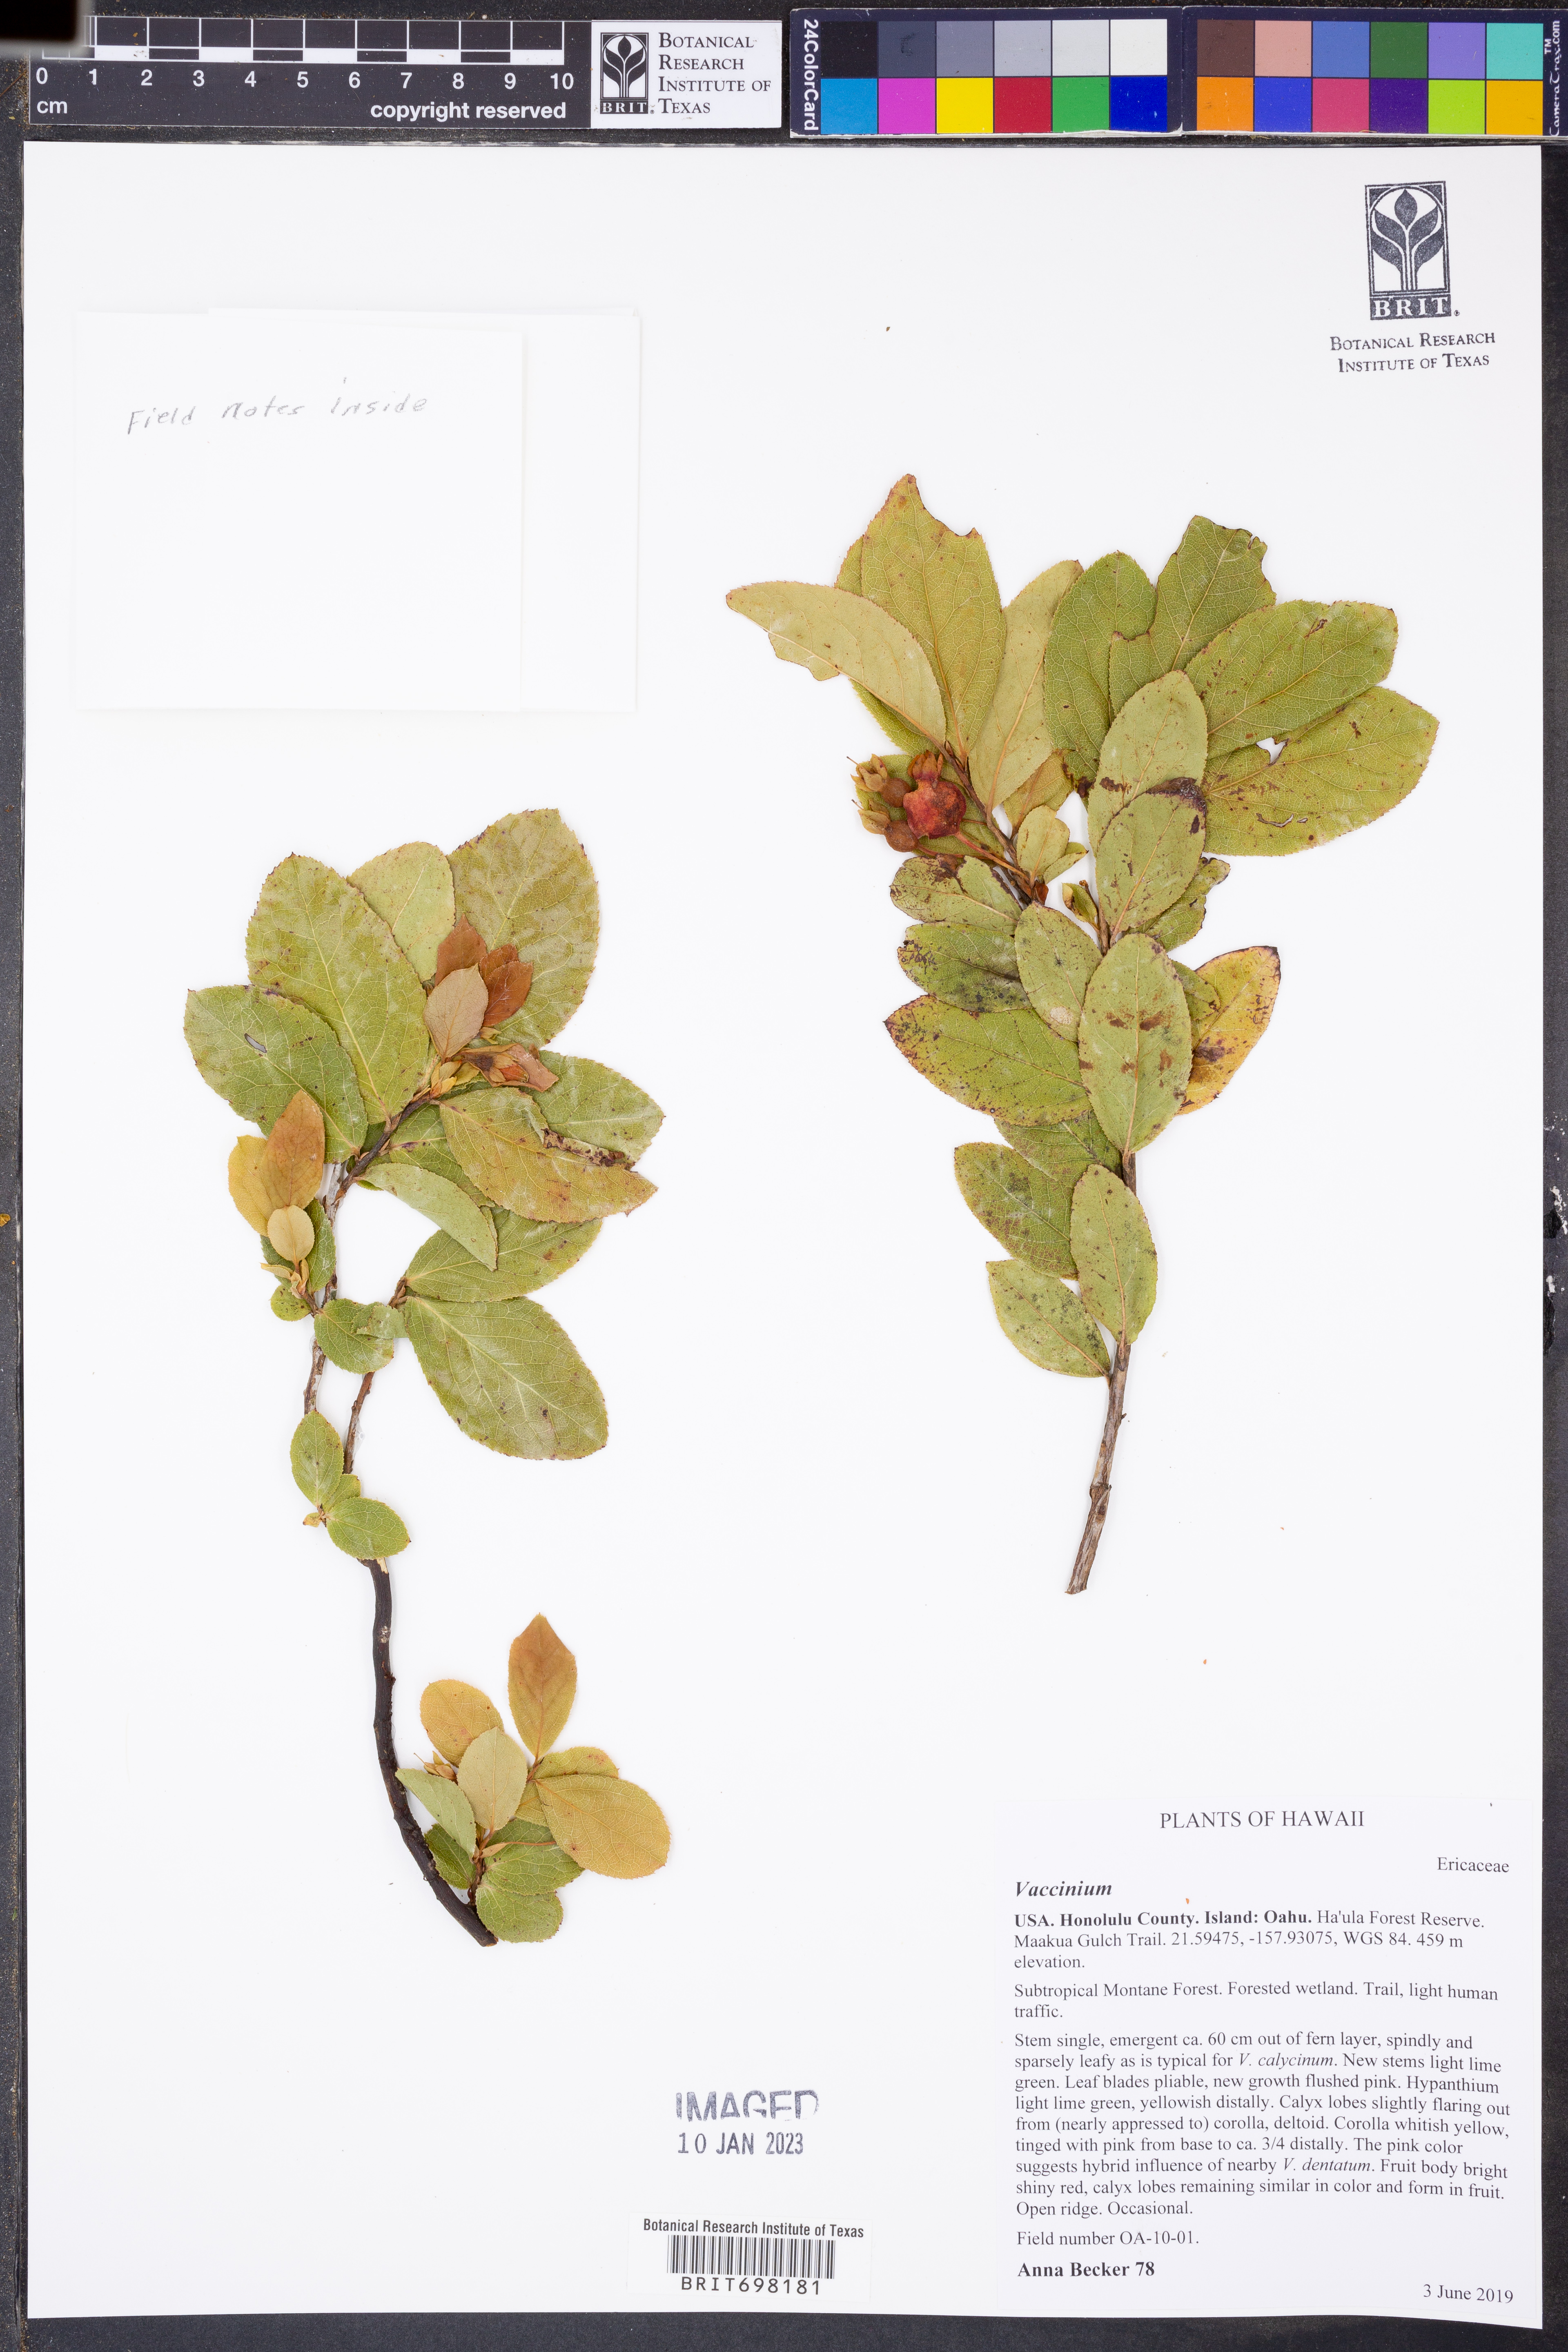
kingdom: Plantae
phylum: Tracheophyta
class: Magnoliopsida
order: Ericales
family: Ericaceae
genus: Vaccinium
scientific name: Vaccinium
